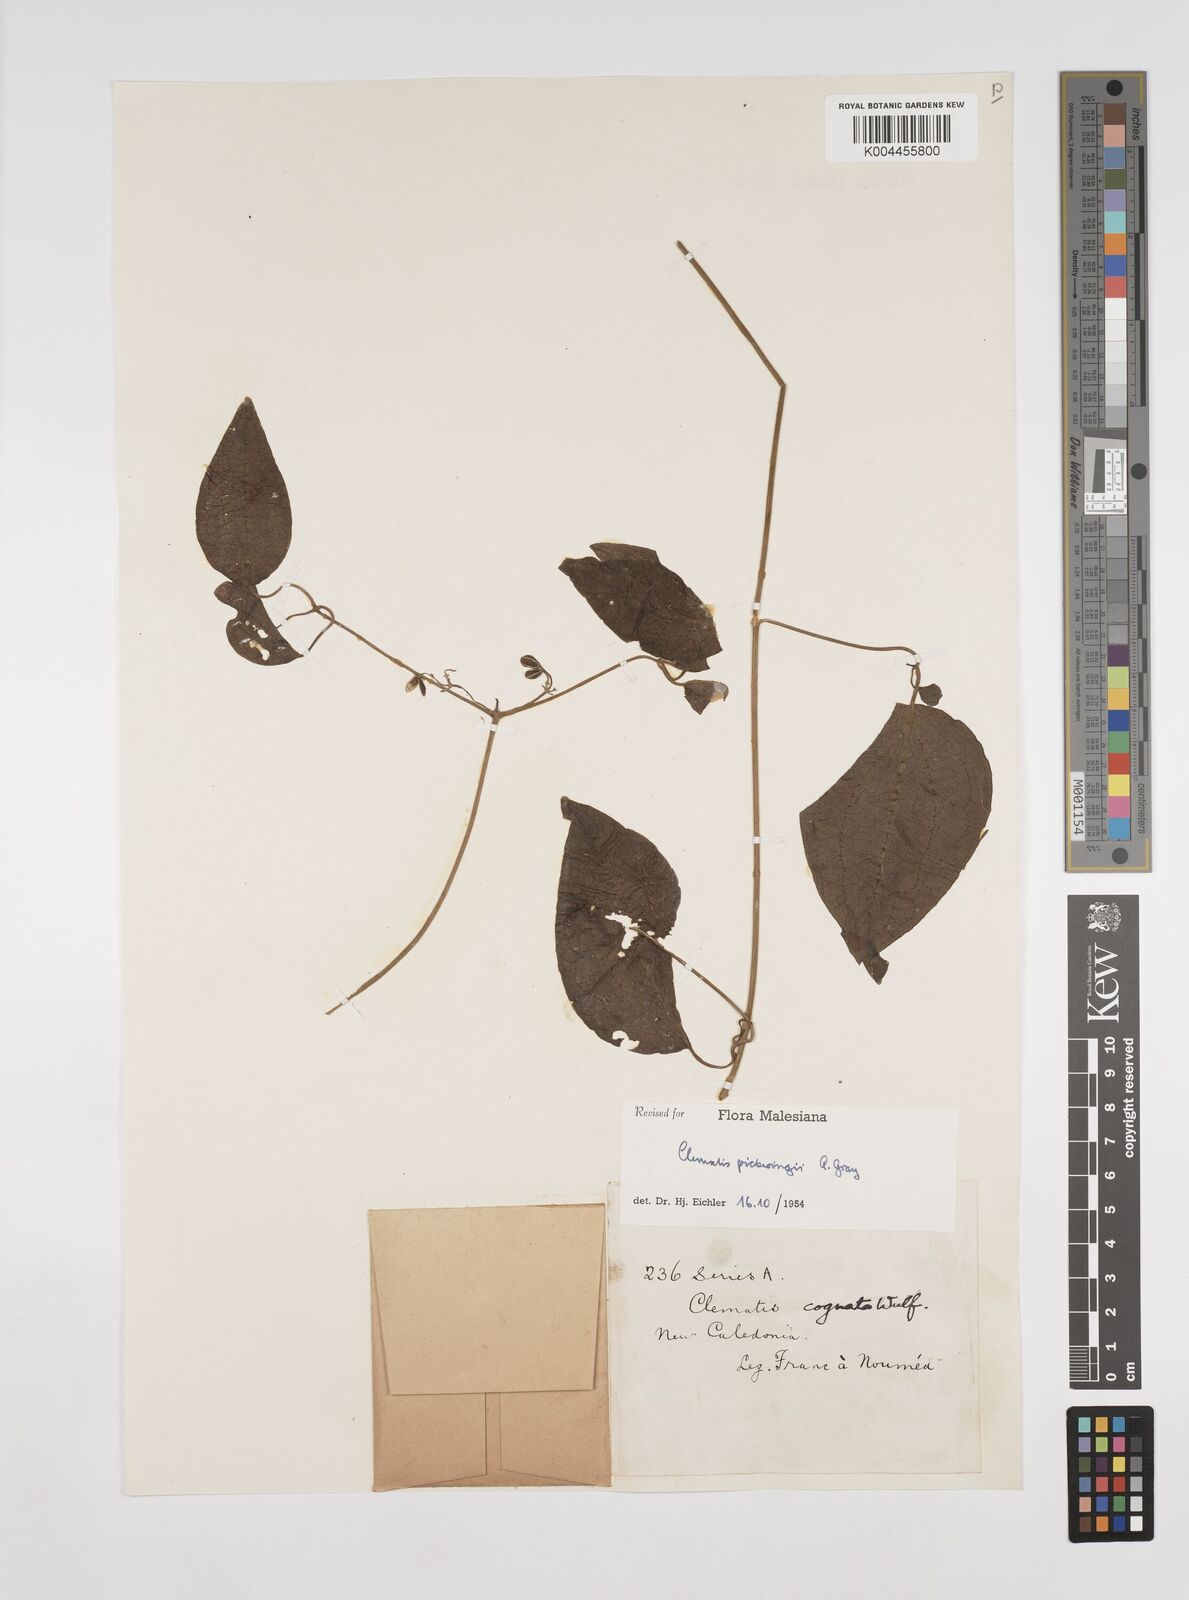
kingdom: Plantae
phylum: Tracheophyta
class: Magnoliopsida
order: Ranunculales
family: Ranunculaceae
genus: Clematis
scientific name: Clematis pickeringii
